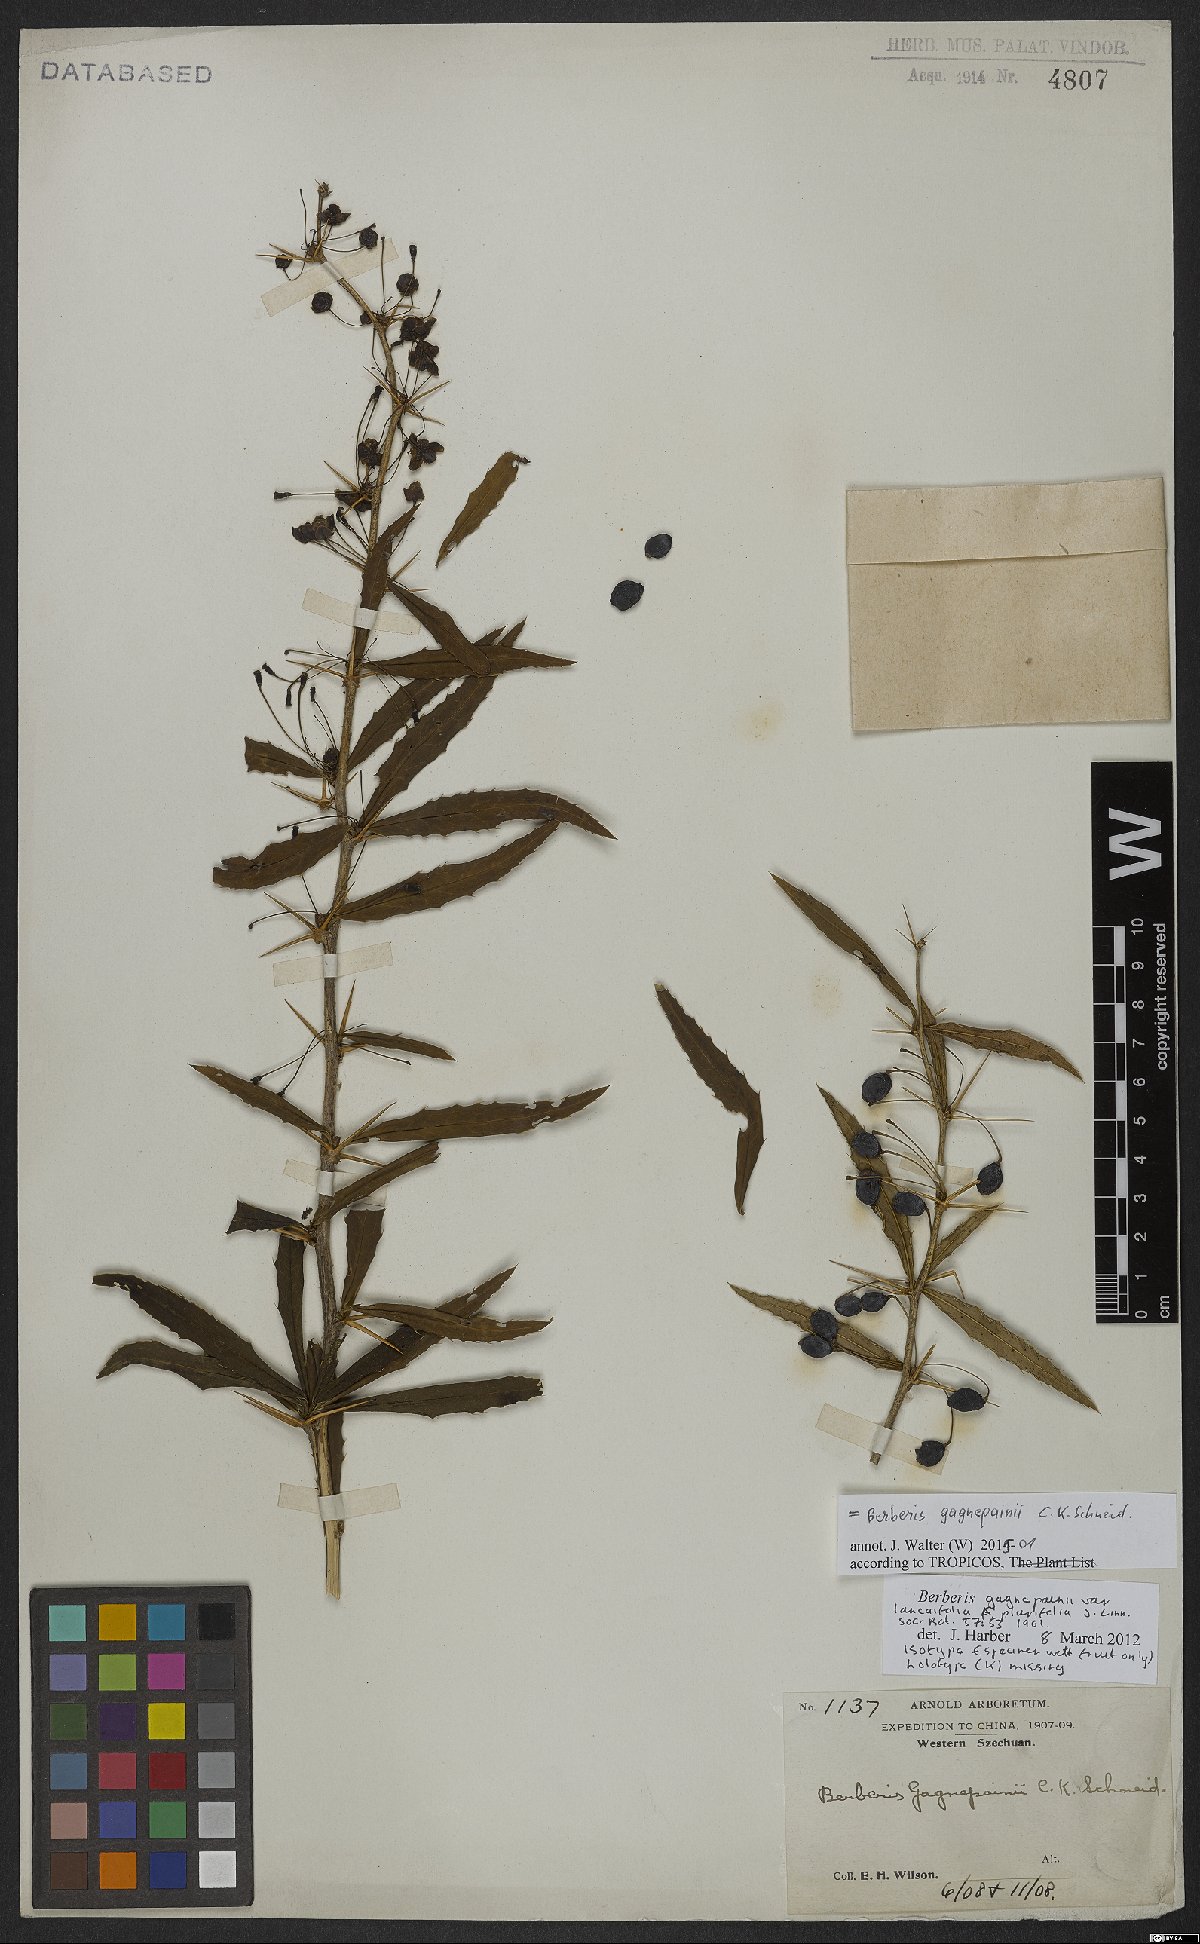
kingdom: Plantae
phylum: Tracheophyta
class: Magnoliopsida
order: Ranunculales
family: Berberidaceae
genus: Berberis
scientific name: Berberis gagnepainii
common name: Gagnepain's barberry
